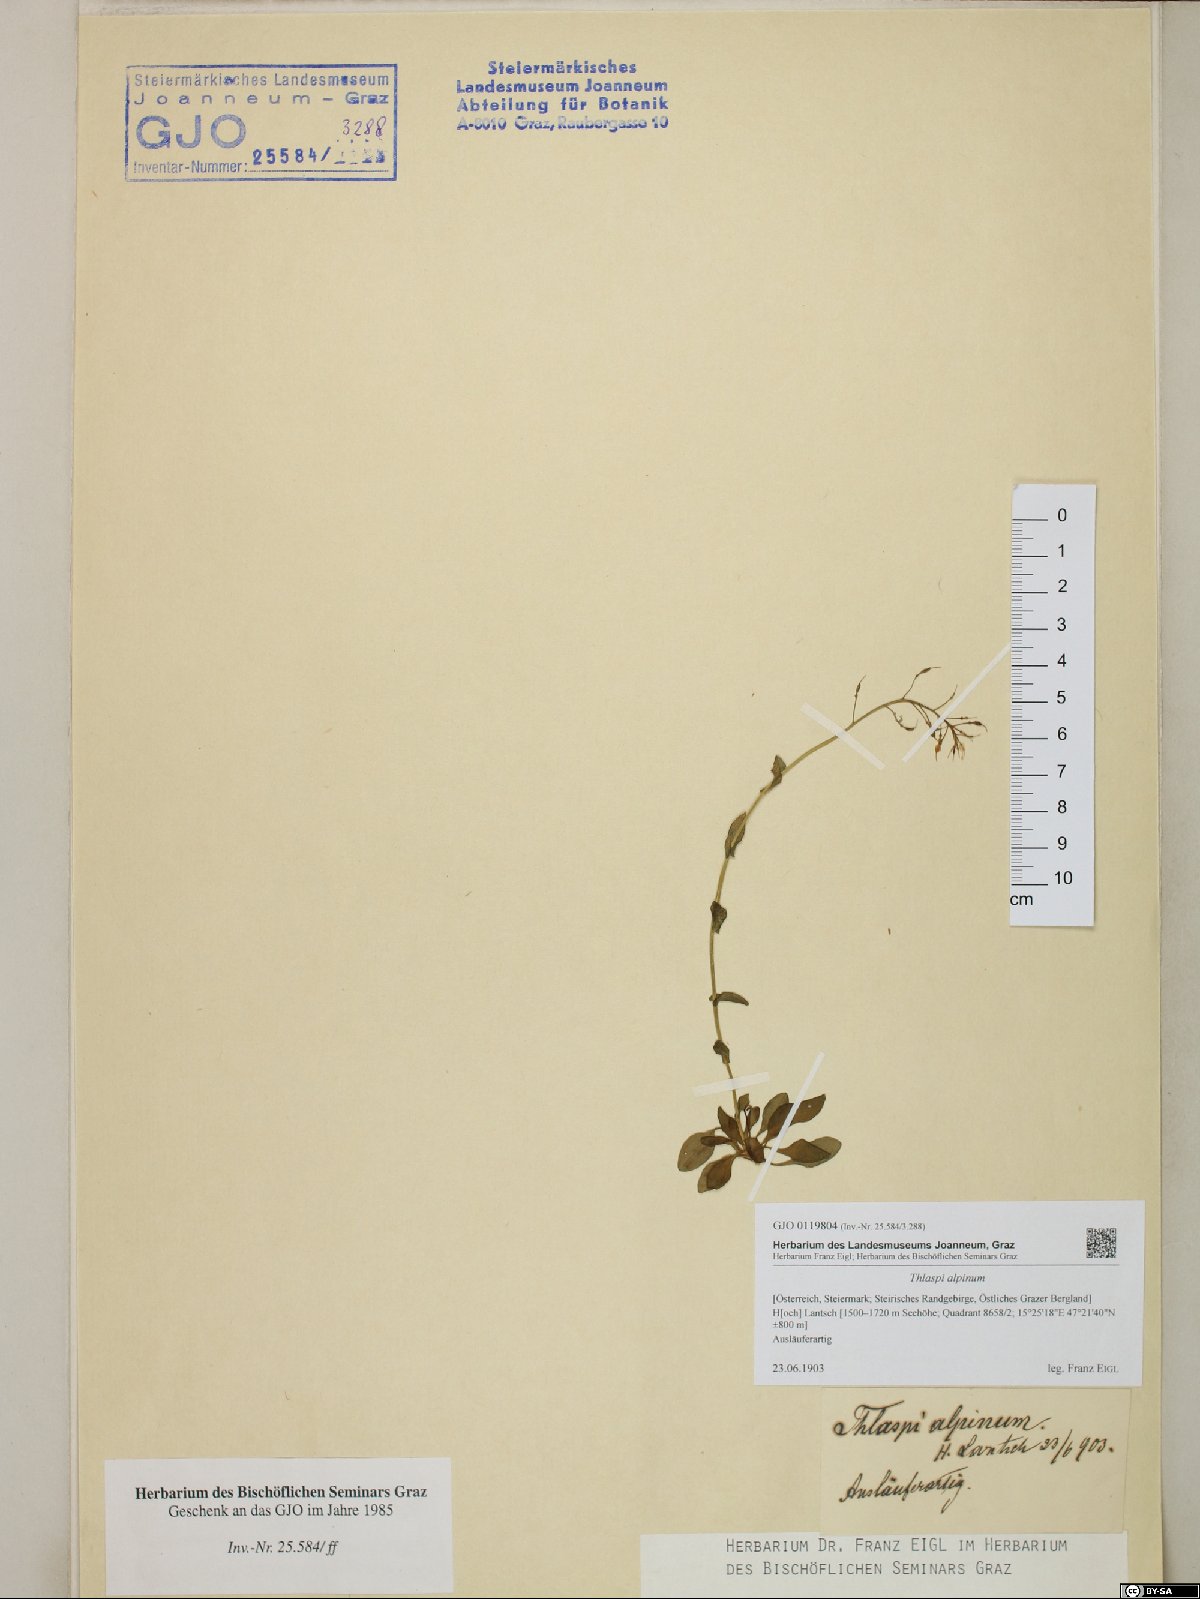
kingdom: Plantae
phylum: Tracheophyta
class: Magnoliopsida
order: Brassicales
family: Brassicaceae
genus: Noccaea
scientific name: Noccaea alpestris
